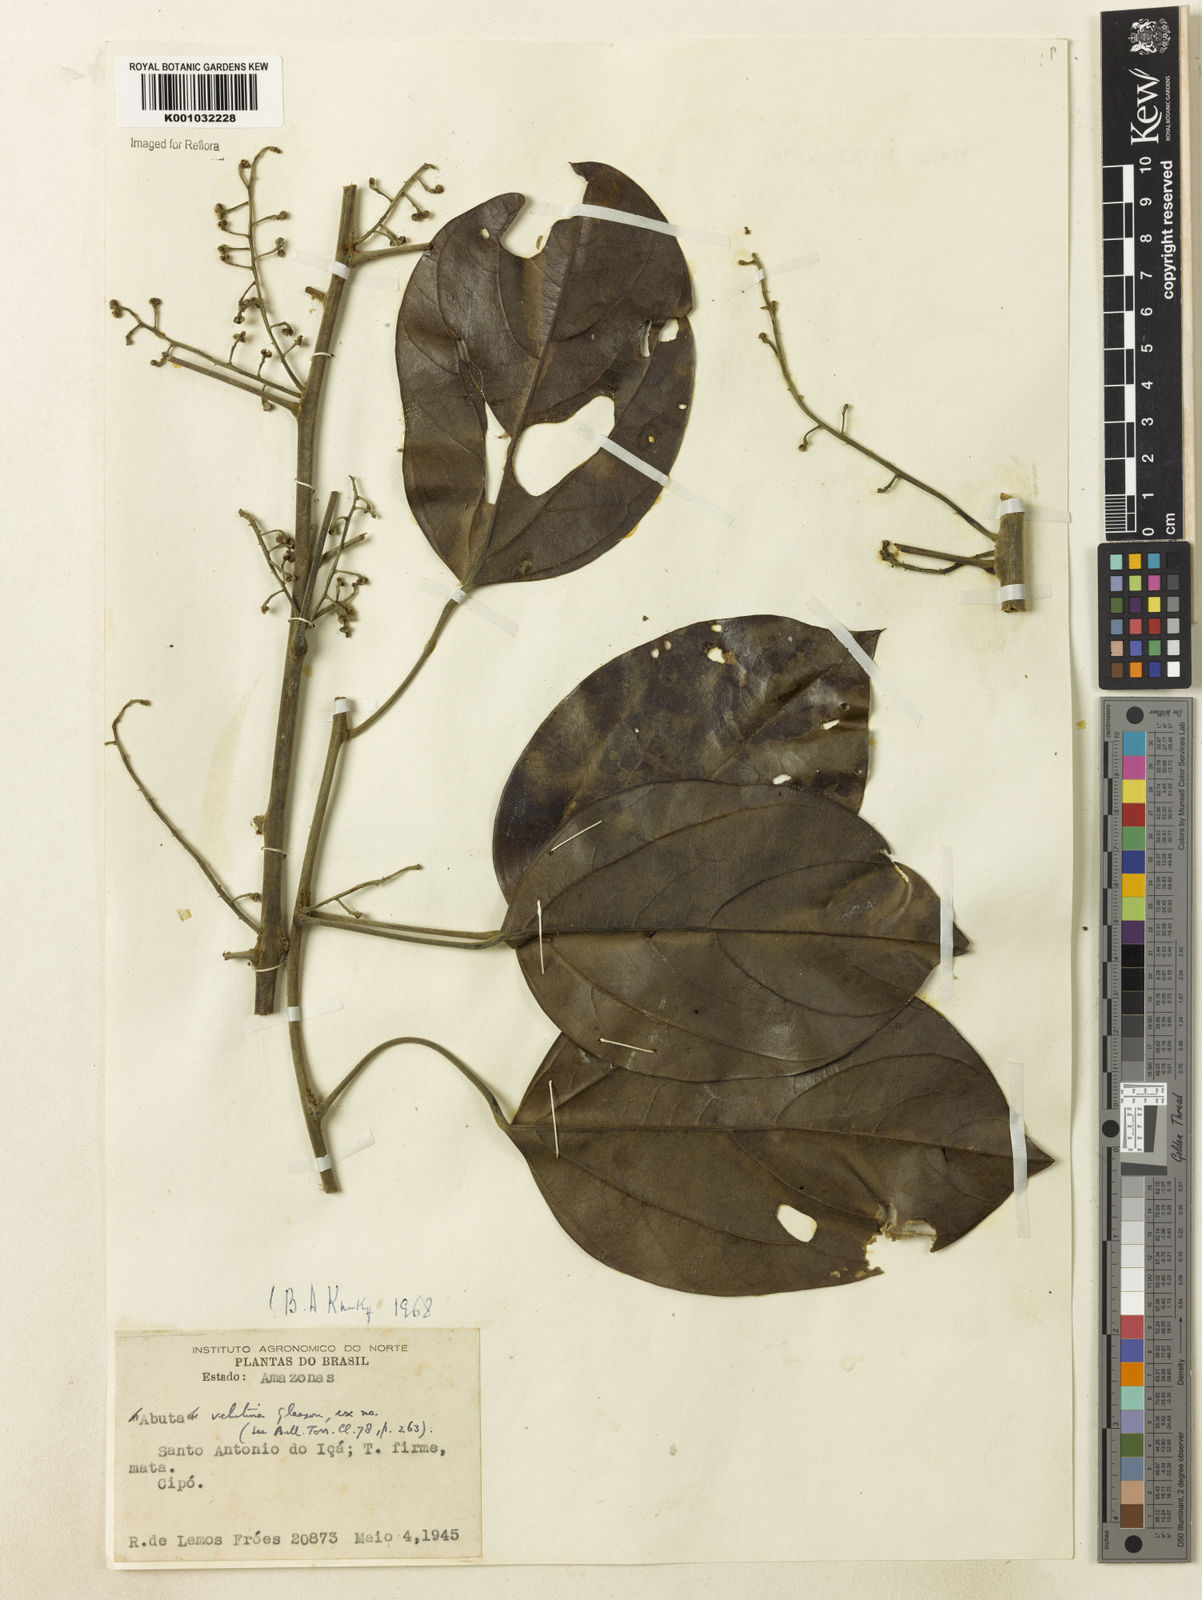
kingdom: Plantae
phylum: Tracheophyta
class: Magnoliopsida
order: Ranunculales
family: Menispermaceae
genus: Abuta
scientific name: Abuta velutina
